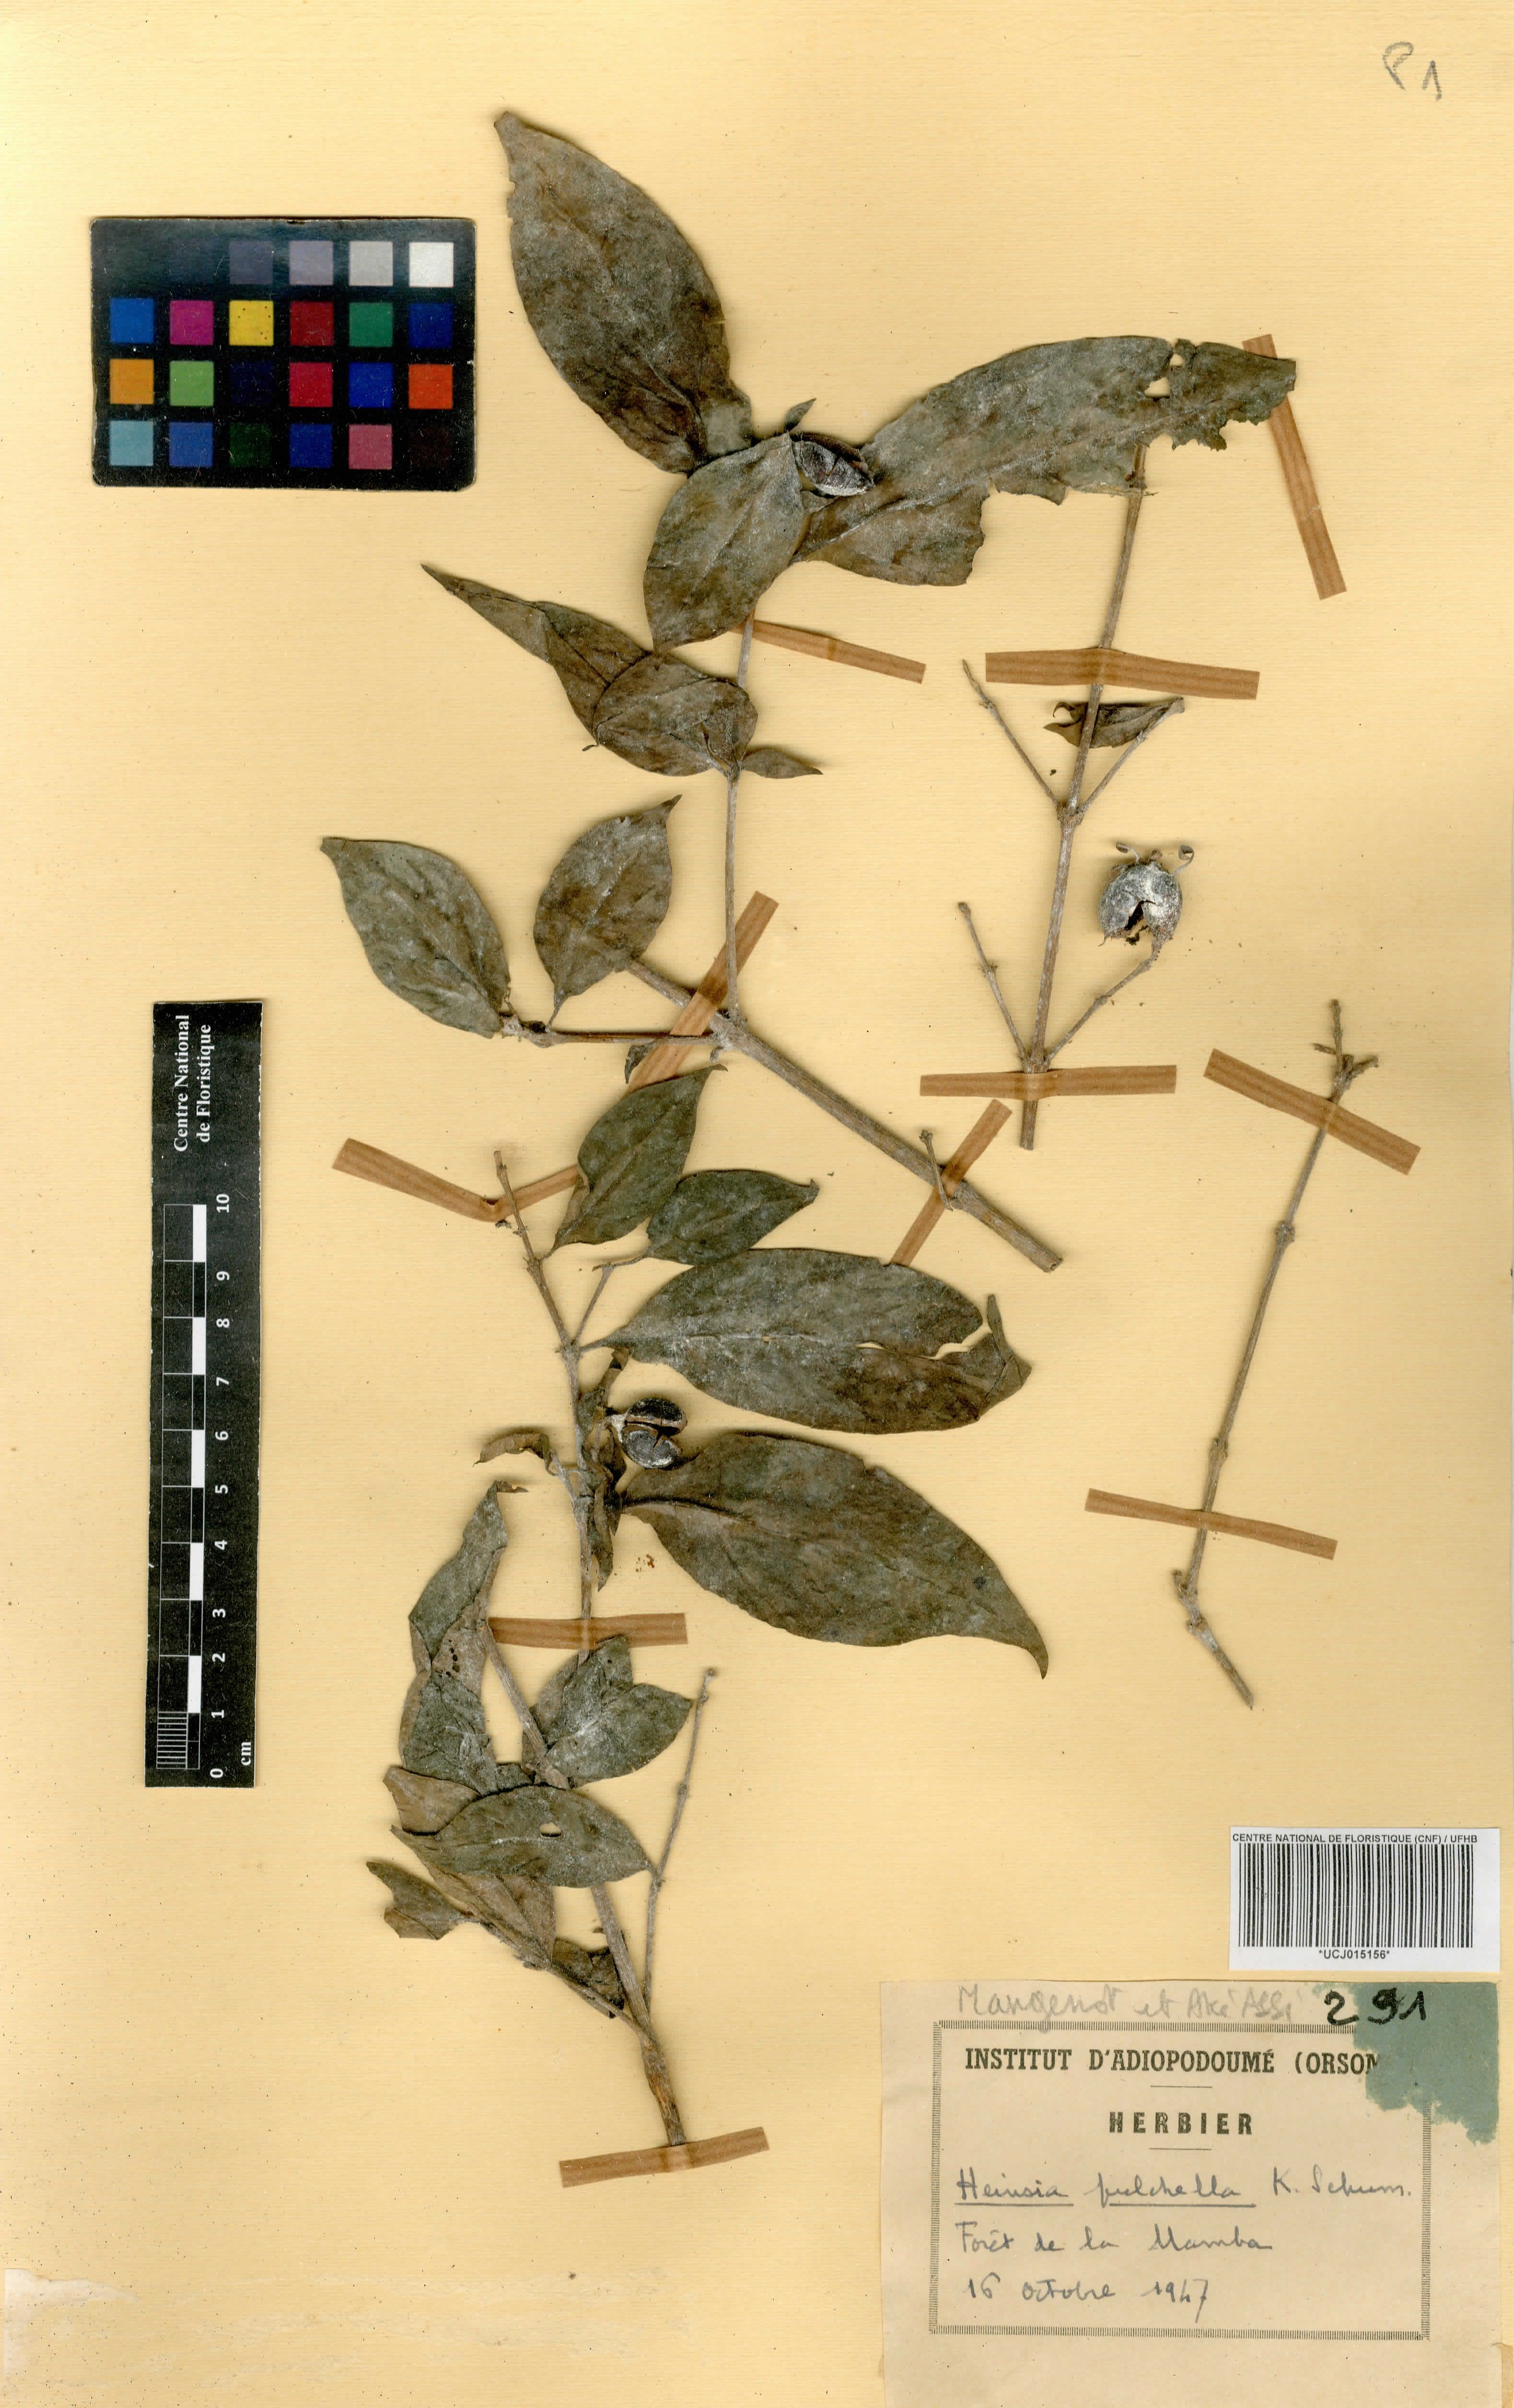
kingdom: Plantae
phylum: Tracheophyta
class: Magnoliopsida
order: Gentianales
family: Rubiaceae
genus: Heinsia
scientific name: Heinsia crinita
